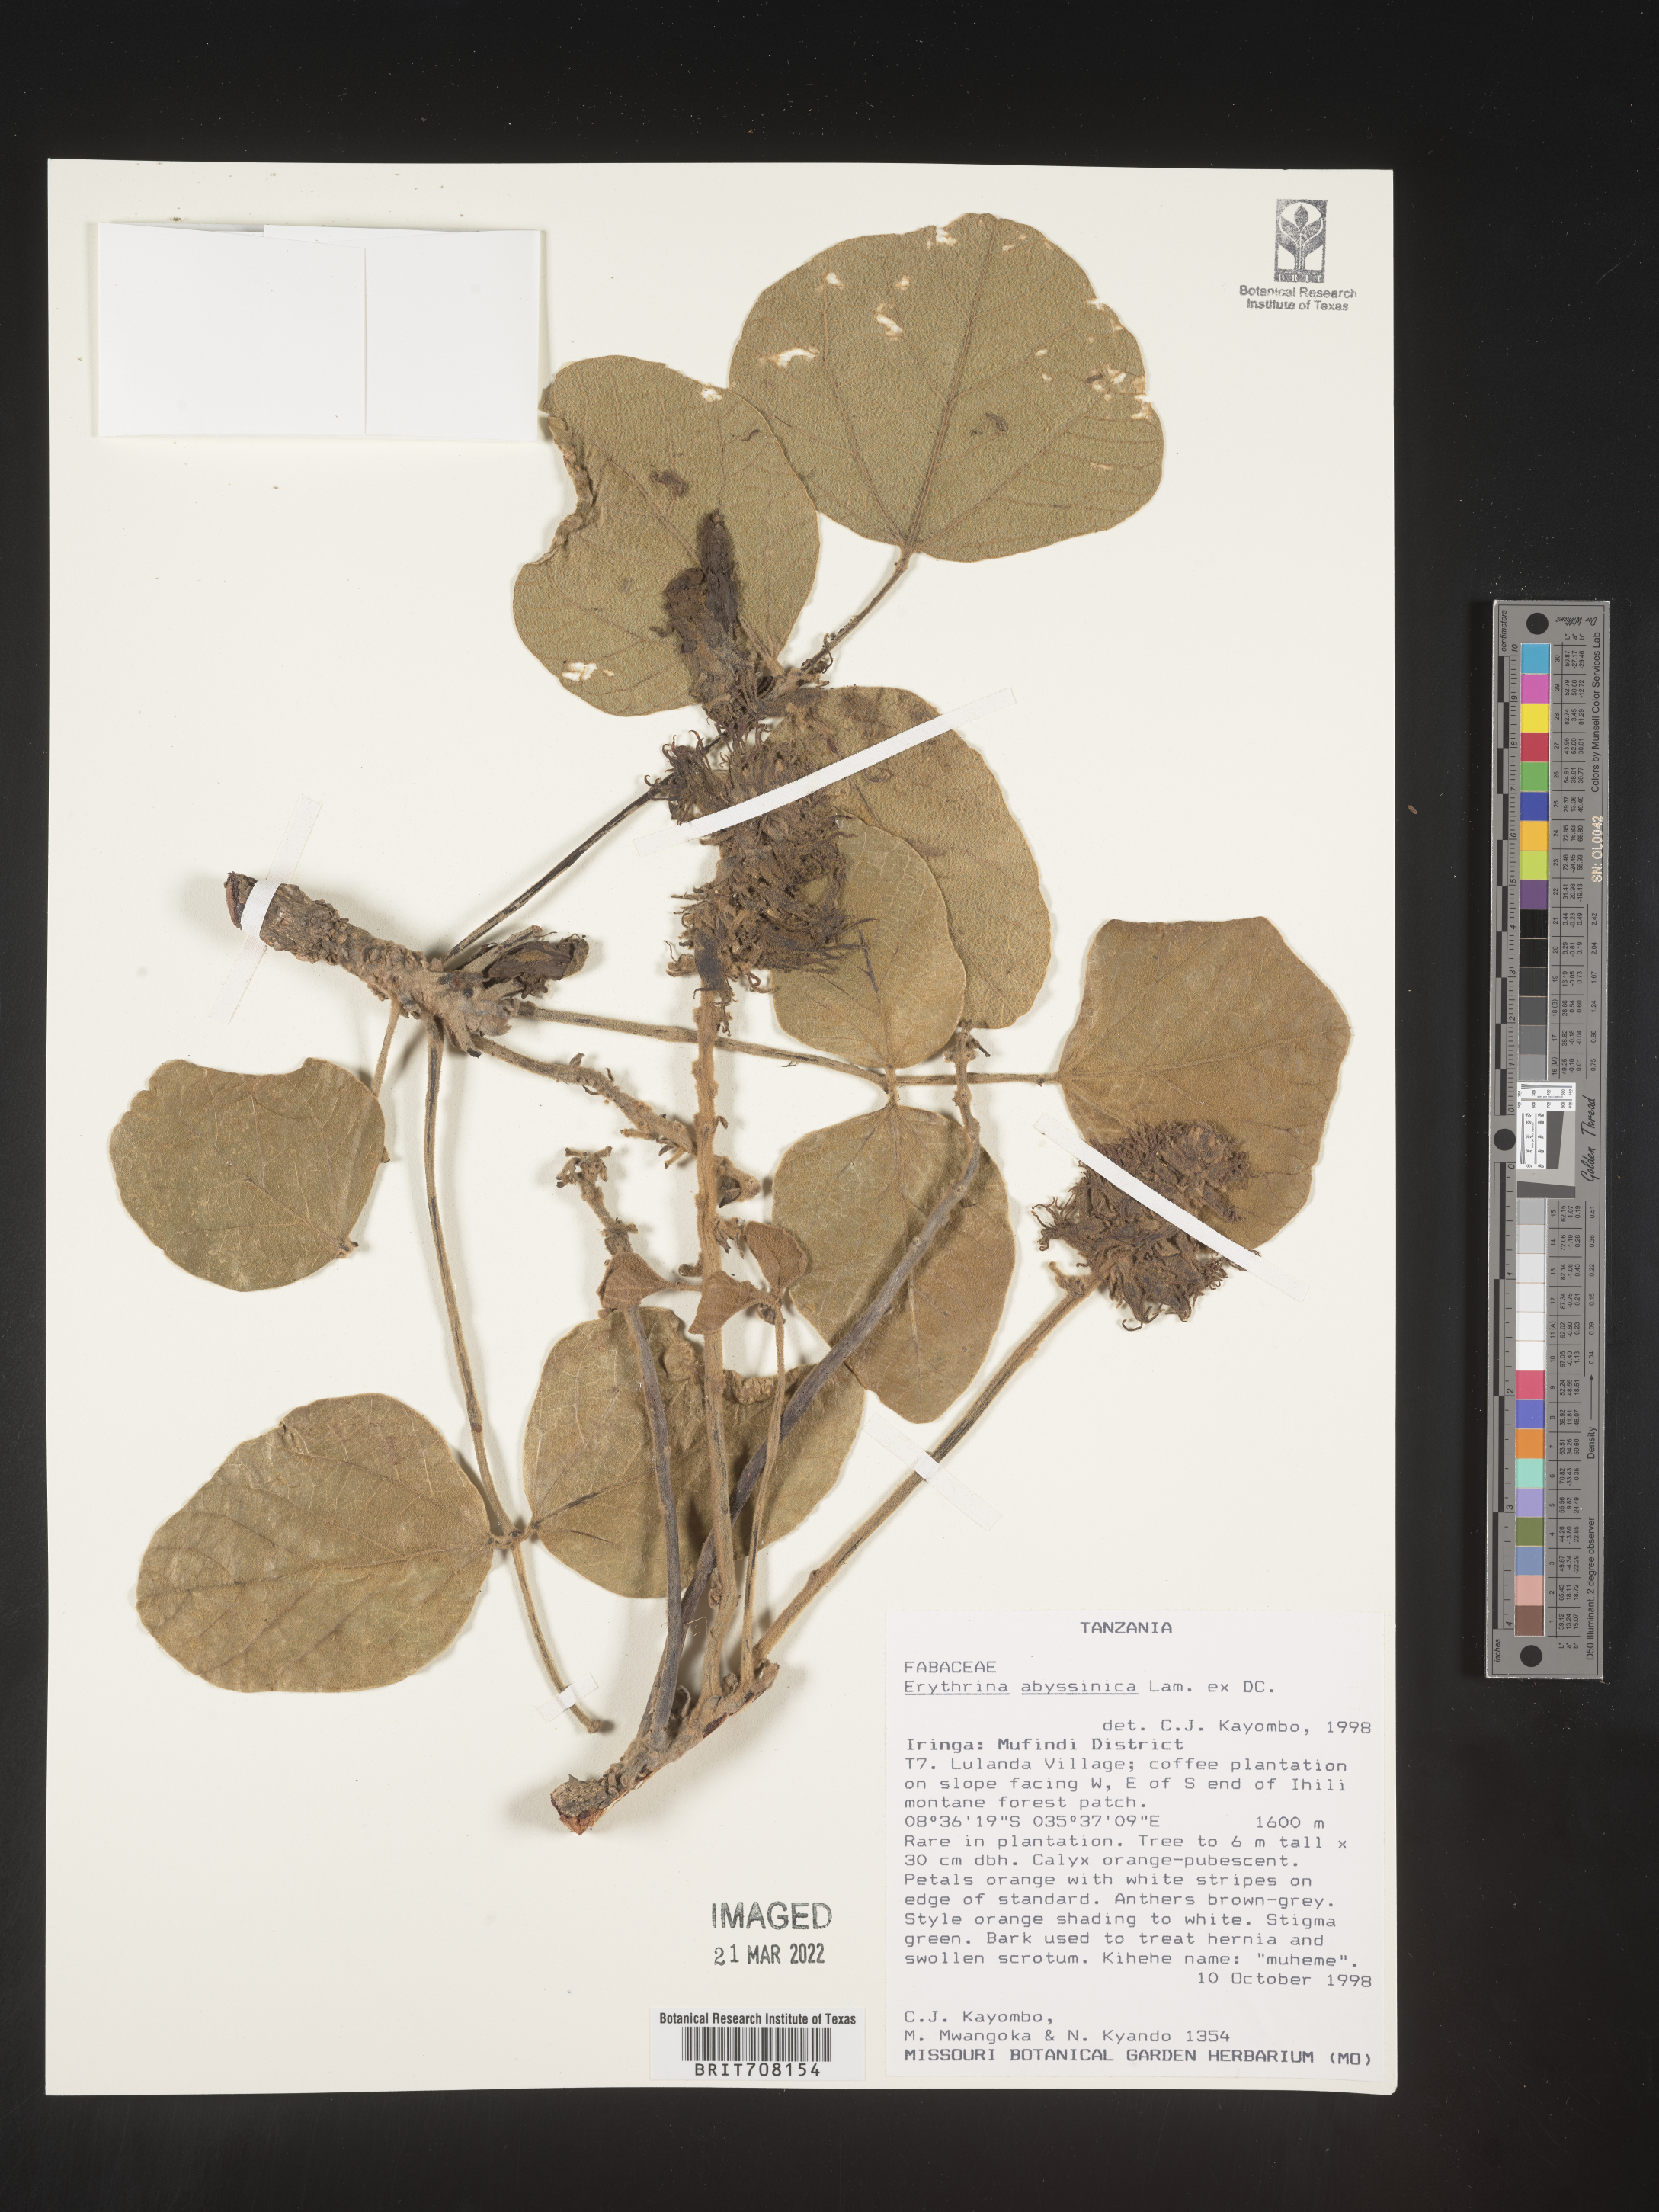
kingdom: Plantae
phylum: Tracheophyta
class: Magnoliopsida
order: Fabales
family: Fabaceae
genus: Erythrina
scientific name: Erythrina
